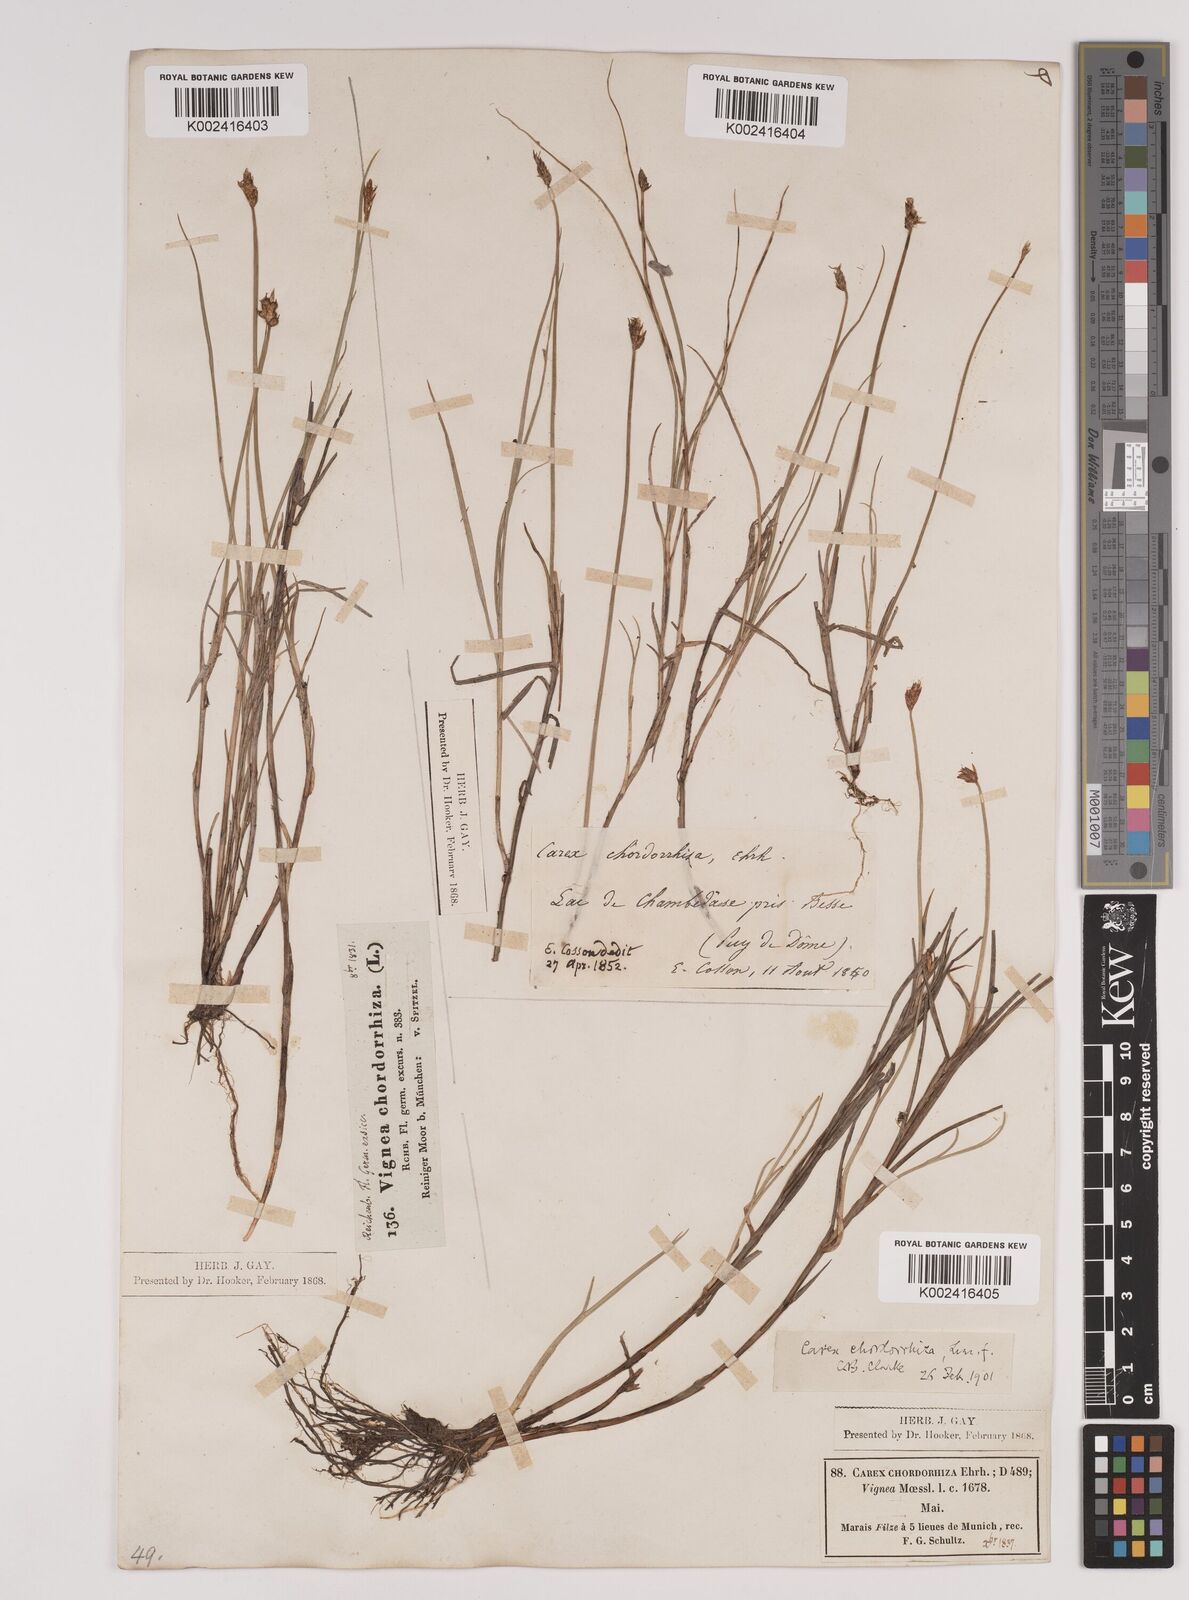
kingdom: Plantae
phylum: Tracheophyta
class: Liliopsida
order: Poales
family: Cyperaceae
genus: Carex
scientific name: Carex chordorrhiza
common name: String sedge
